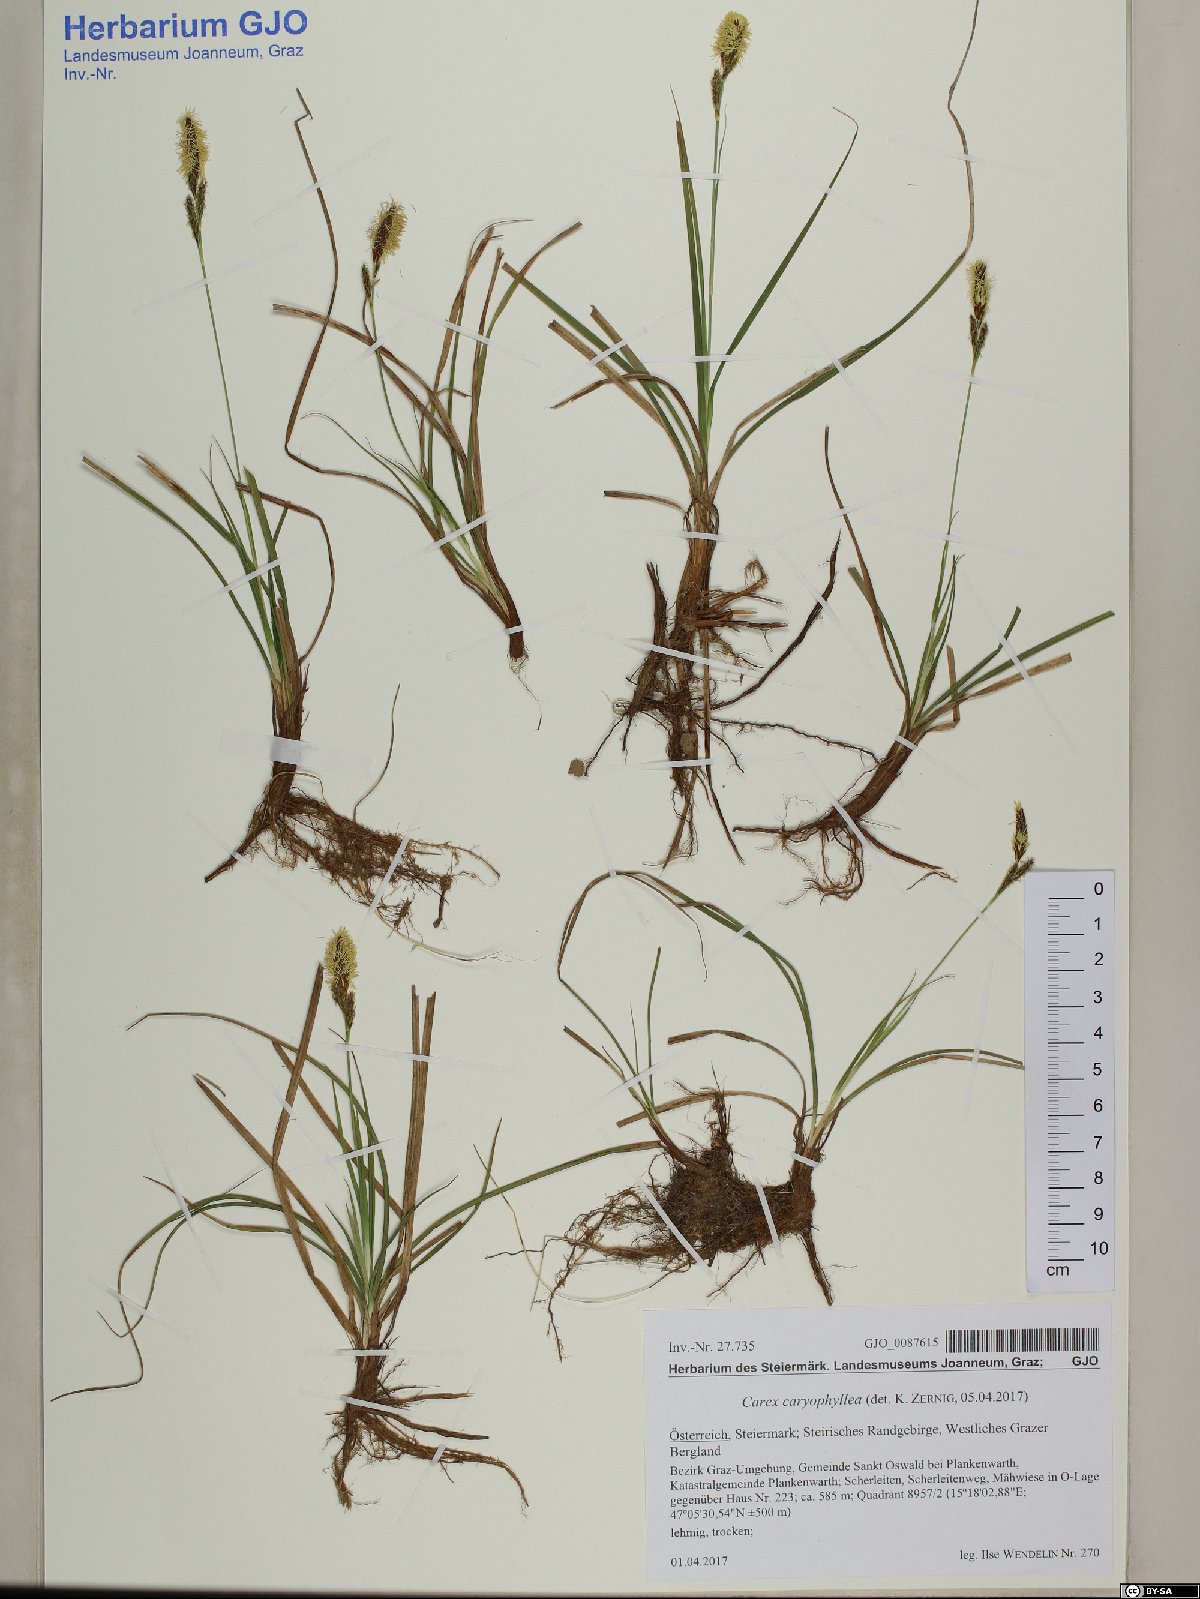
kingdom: Plantae
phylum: Tracheophyta
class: Liliopsida
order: Poales
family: Cyperaceae
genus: Carex
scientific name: Carex caryophyllea
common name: Spring sedge
